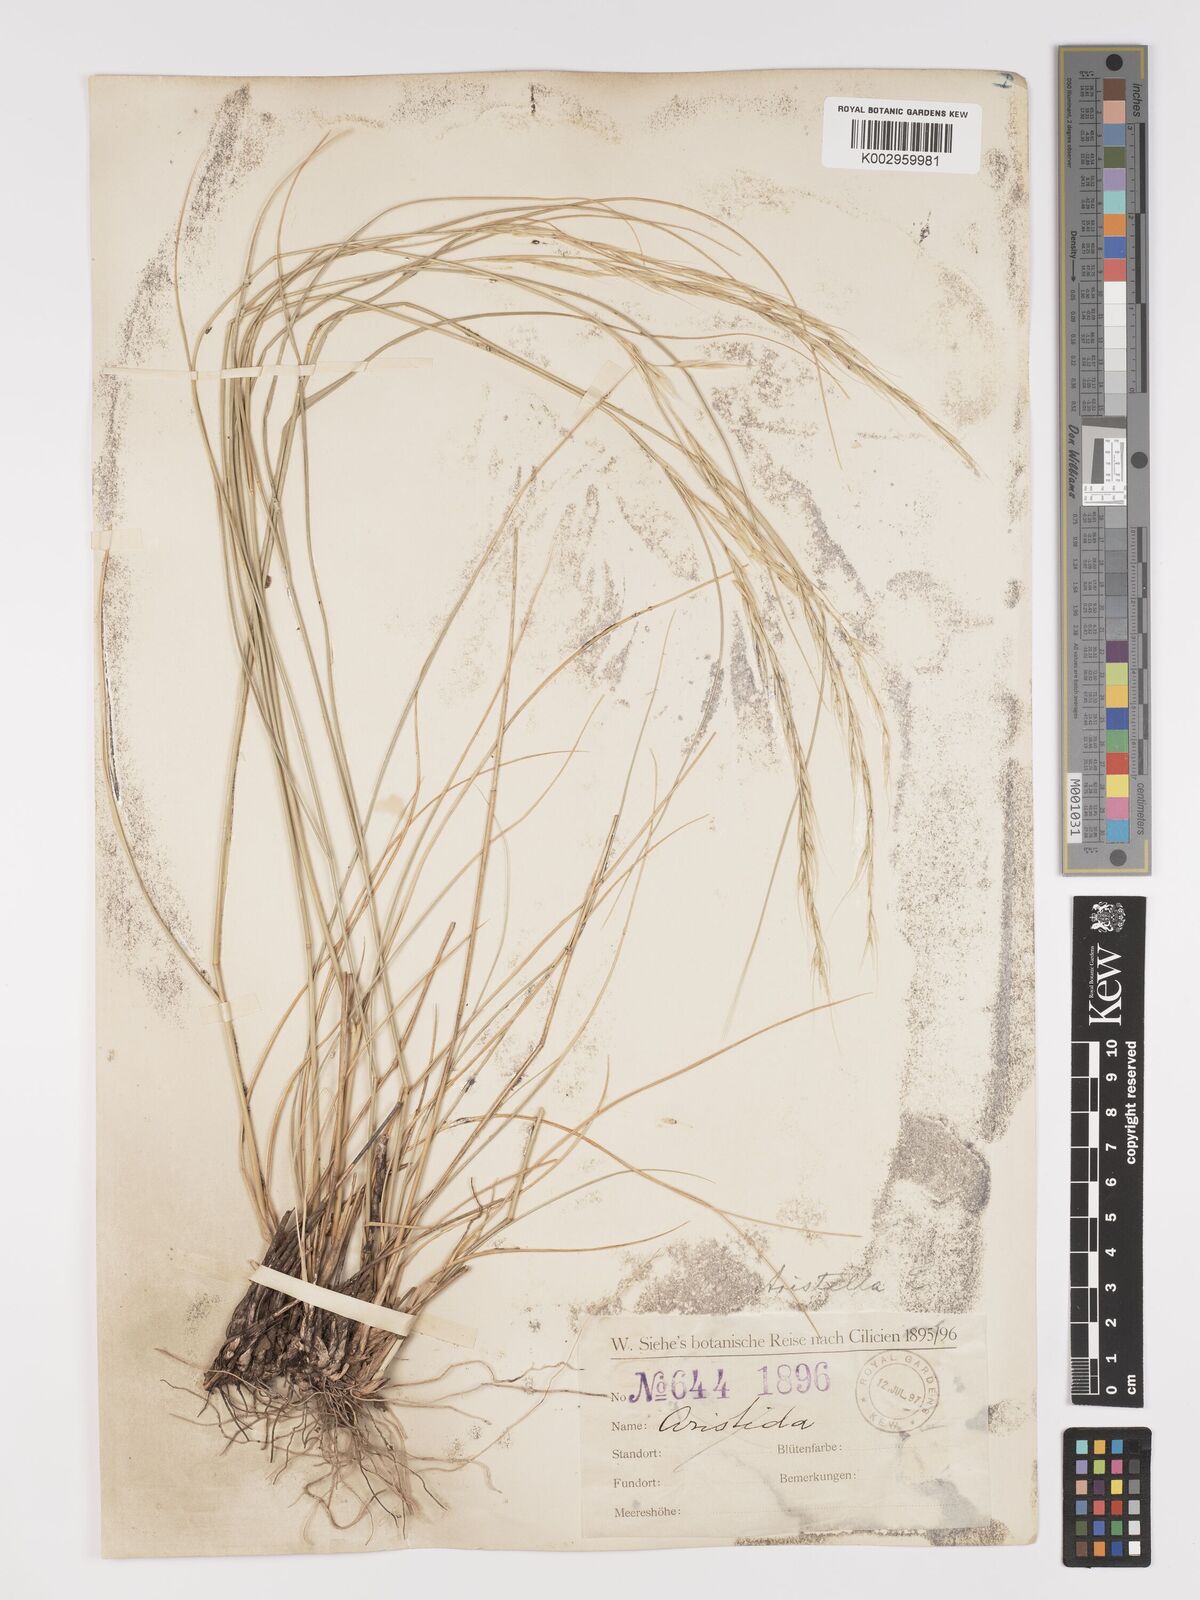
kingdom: Plantae
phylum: Tracheophyta
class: Liliopsida
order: Poales
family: Poaceae
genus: Achnatherum
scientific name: Achnatherum bromoides
